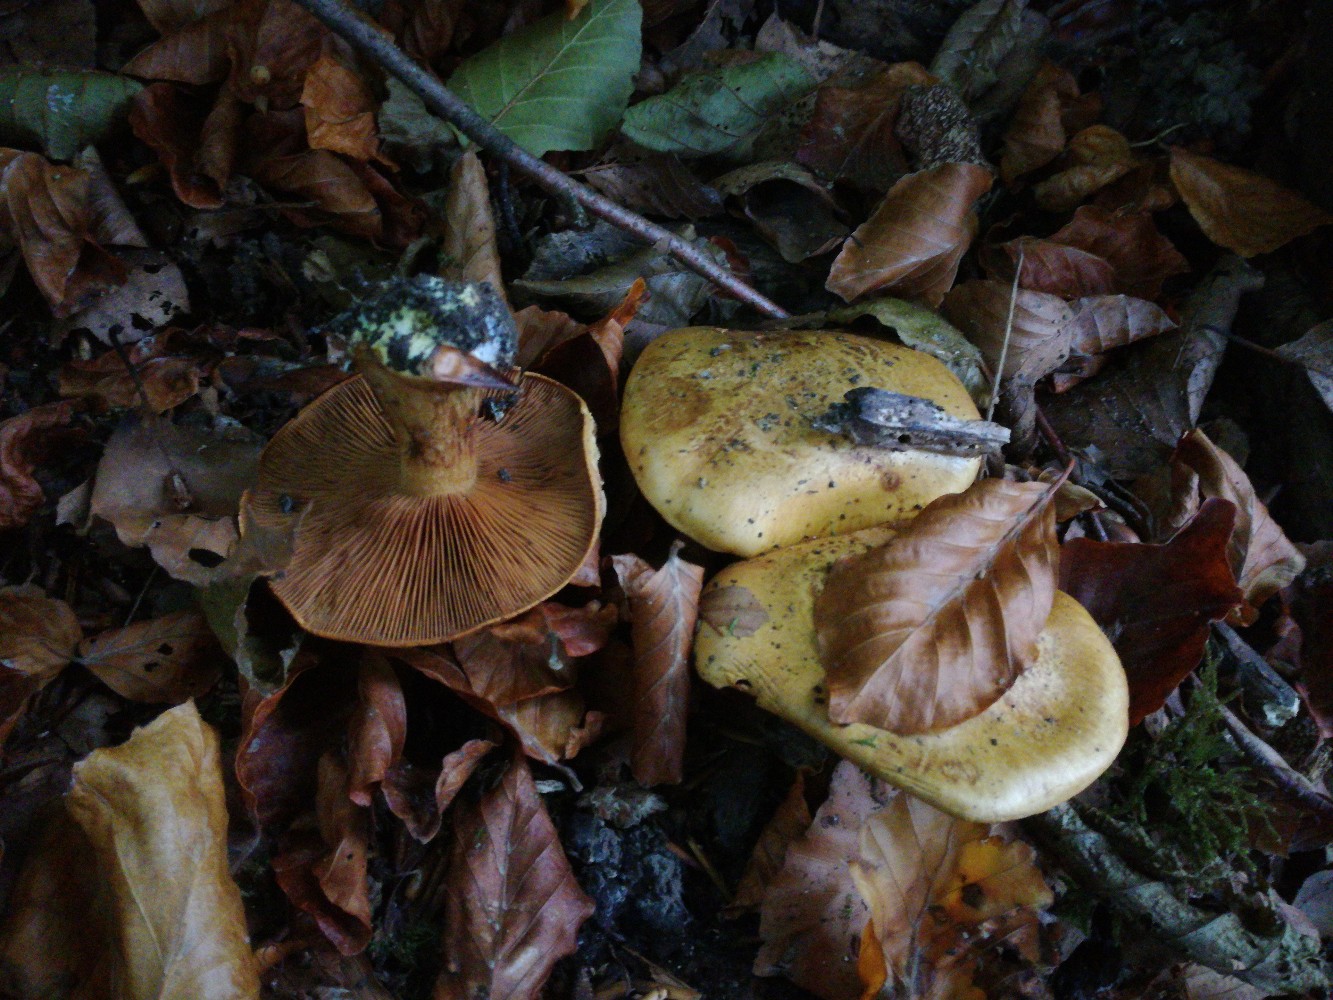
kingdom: Fungi
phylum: Basidiomycota
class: Agaricomycetes
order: Agaricales
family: Cortinariaceae
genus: Calonarius
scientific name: Calonarius alcalinophilus
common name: gyldenbrun slørhat
